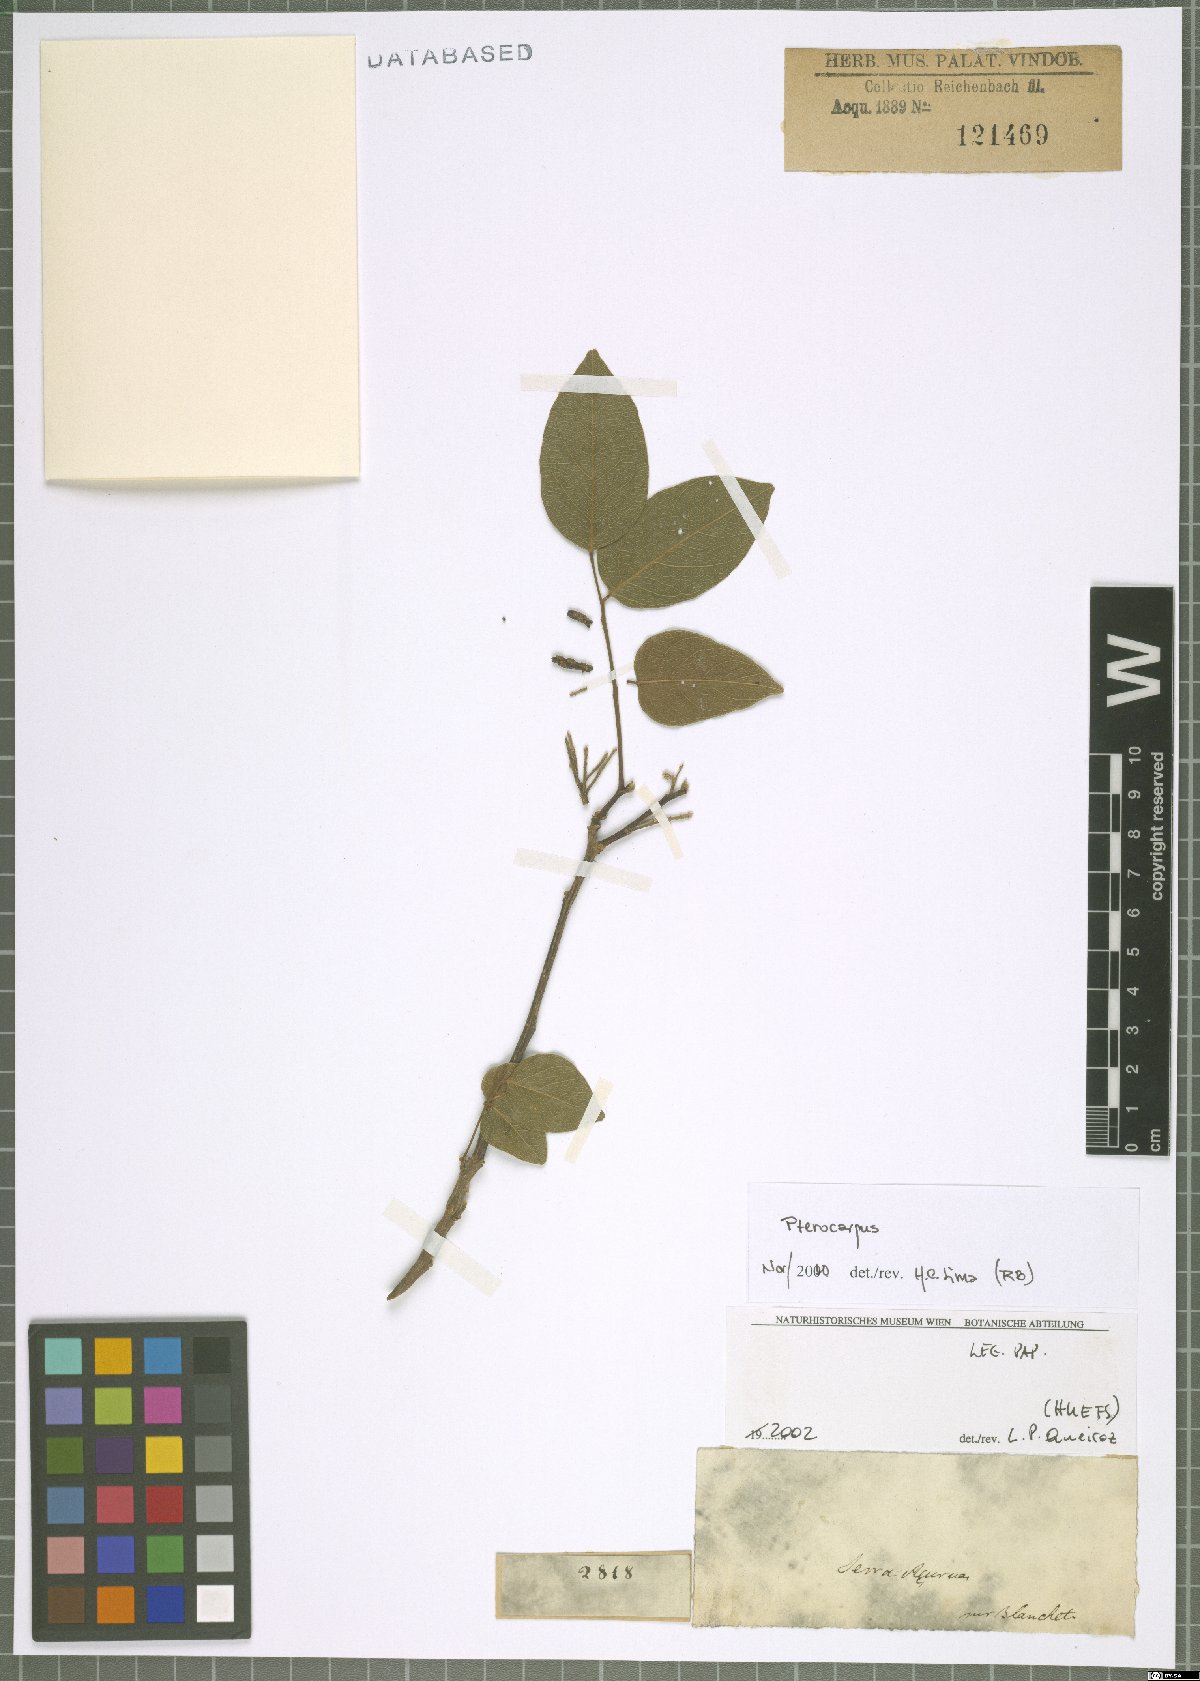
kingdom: Plantae
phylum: Tracheophyta
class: Magnoliopsida
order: Fabales
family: Fabaceae
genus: Pterocarpus
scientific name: Pterocarpus
